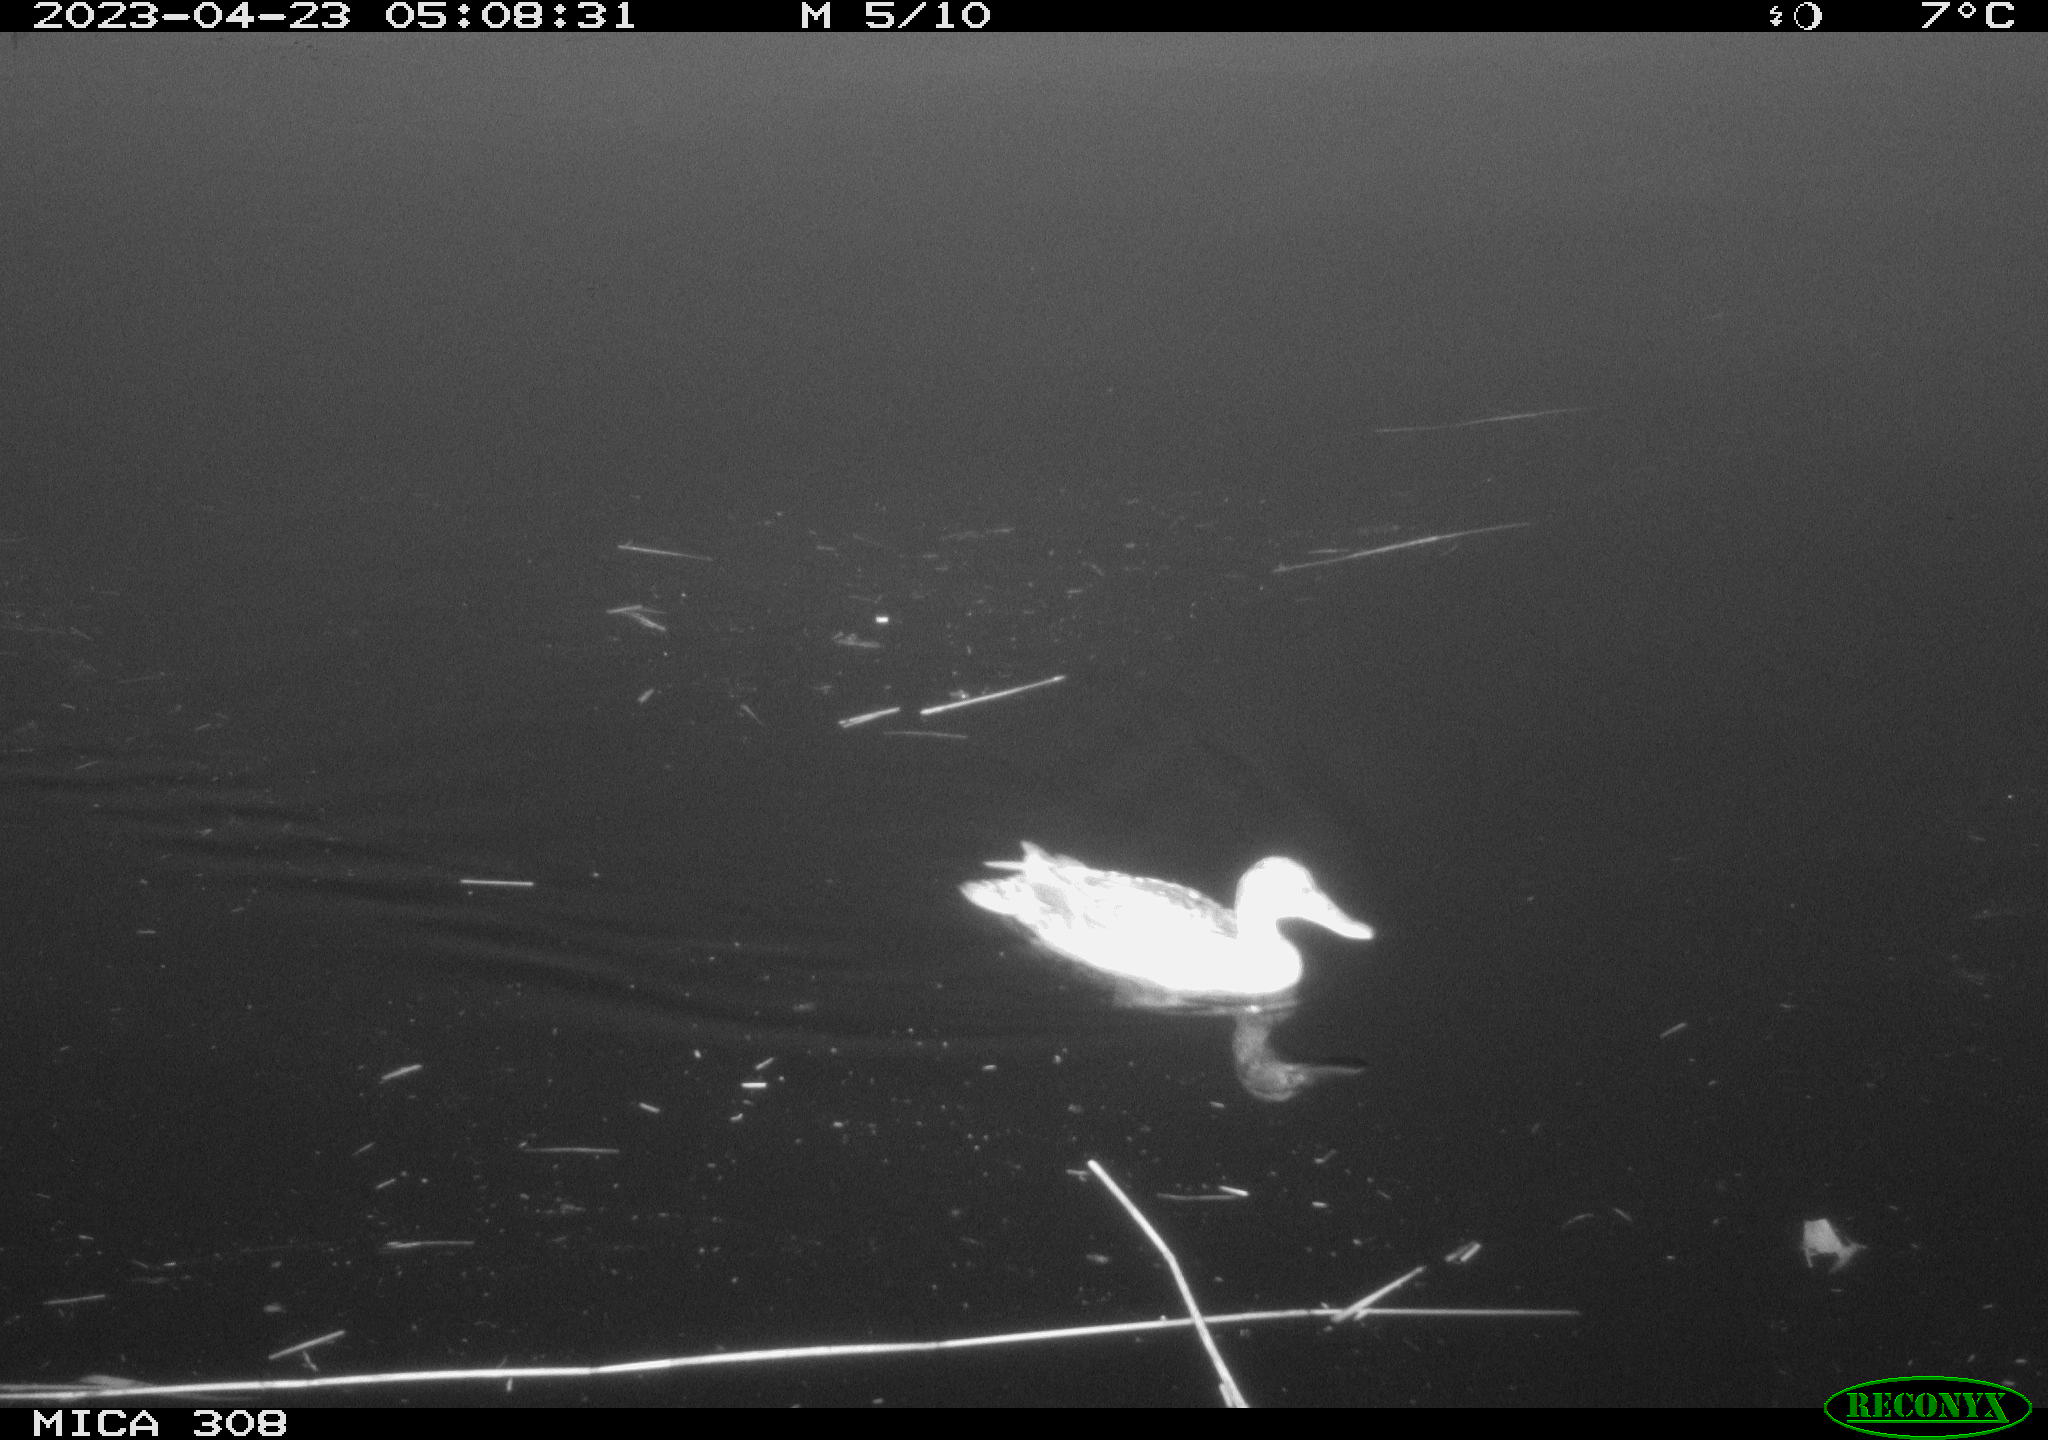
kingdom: Animalia
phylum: Chordata
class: Aves
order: Anseriformes
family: Anatidae
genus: Anas
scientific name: Anas
